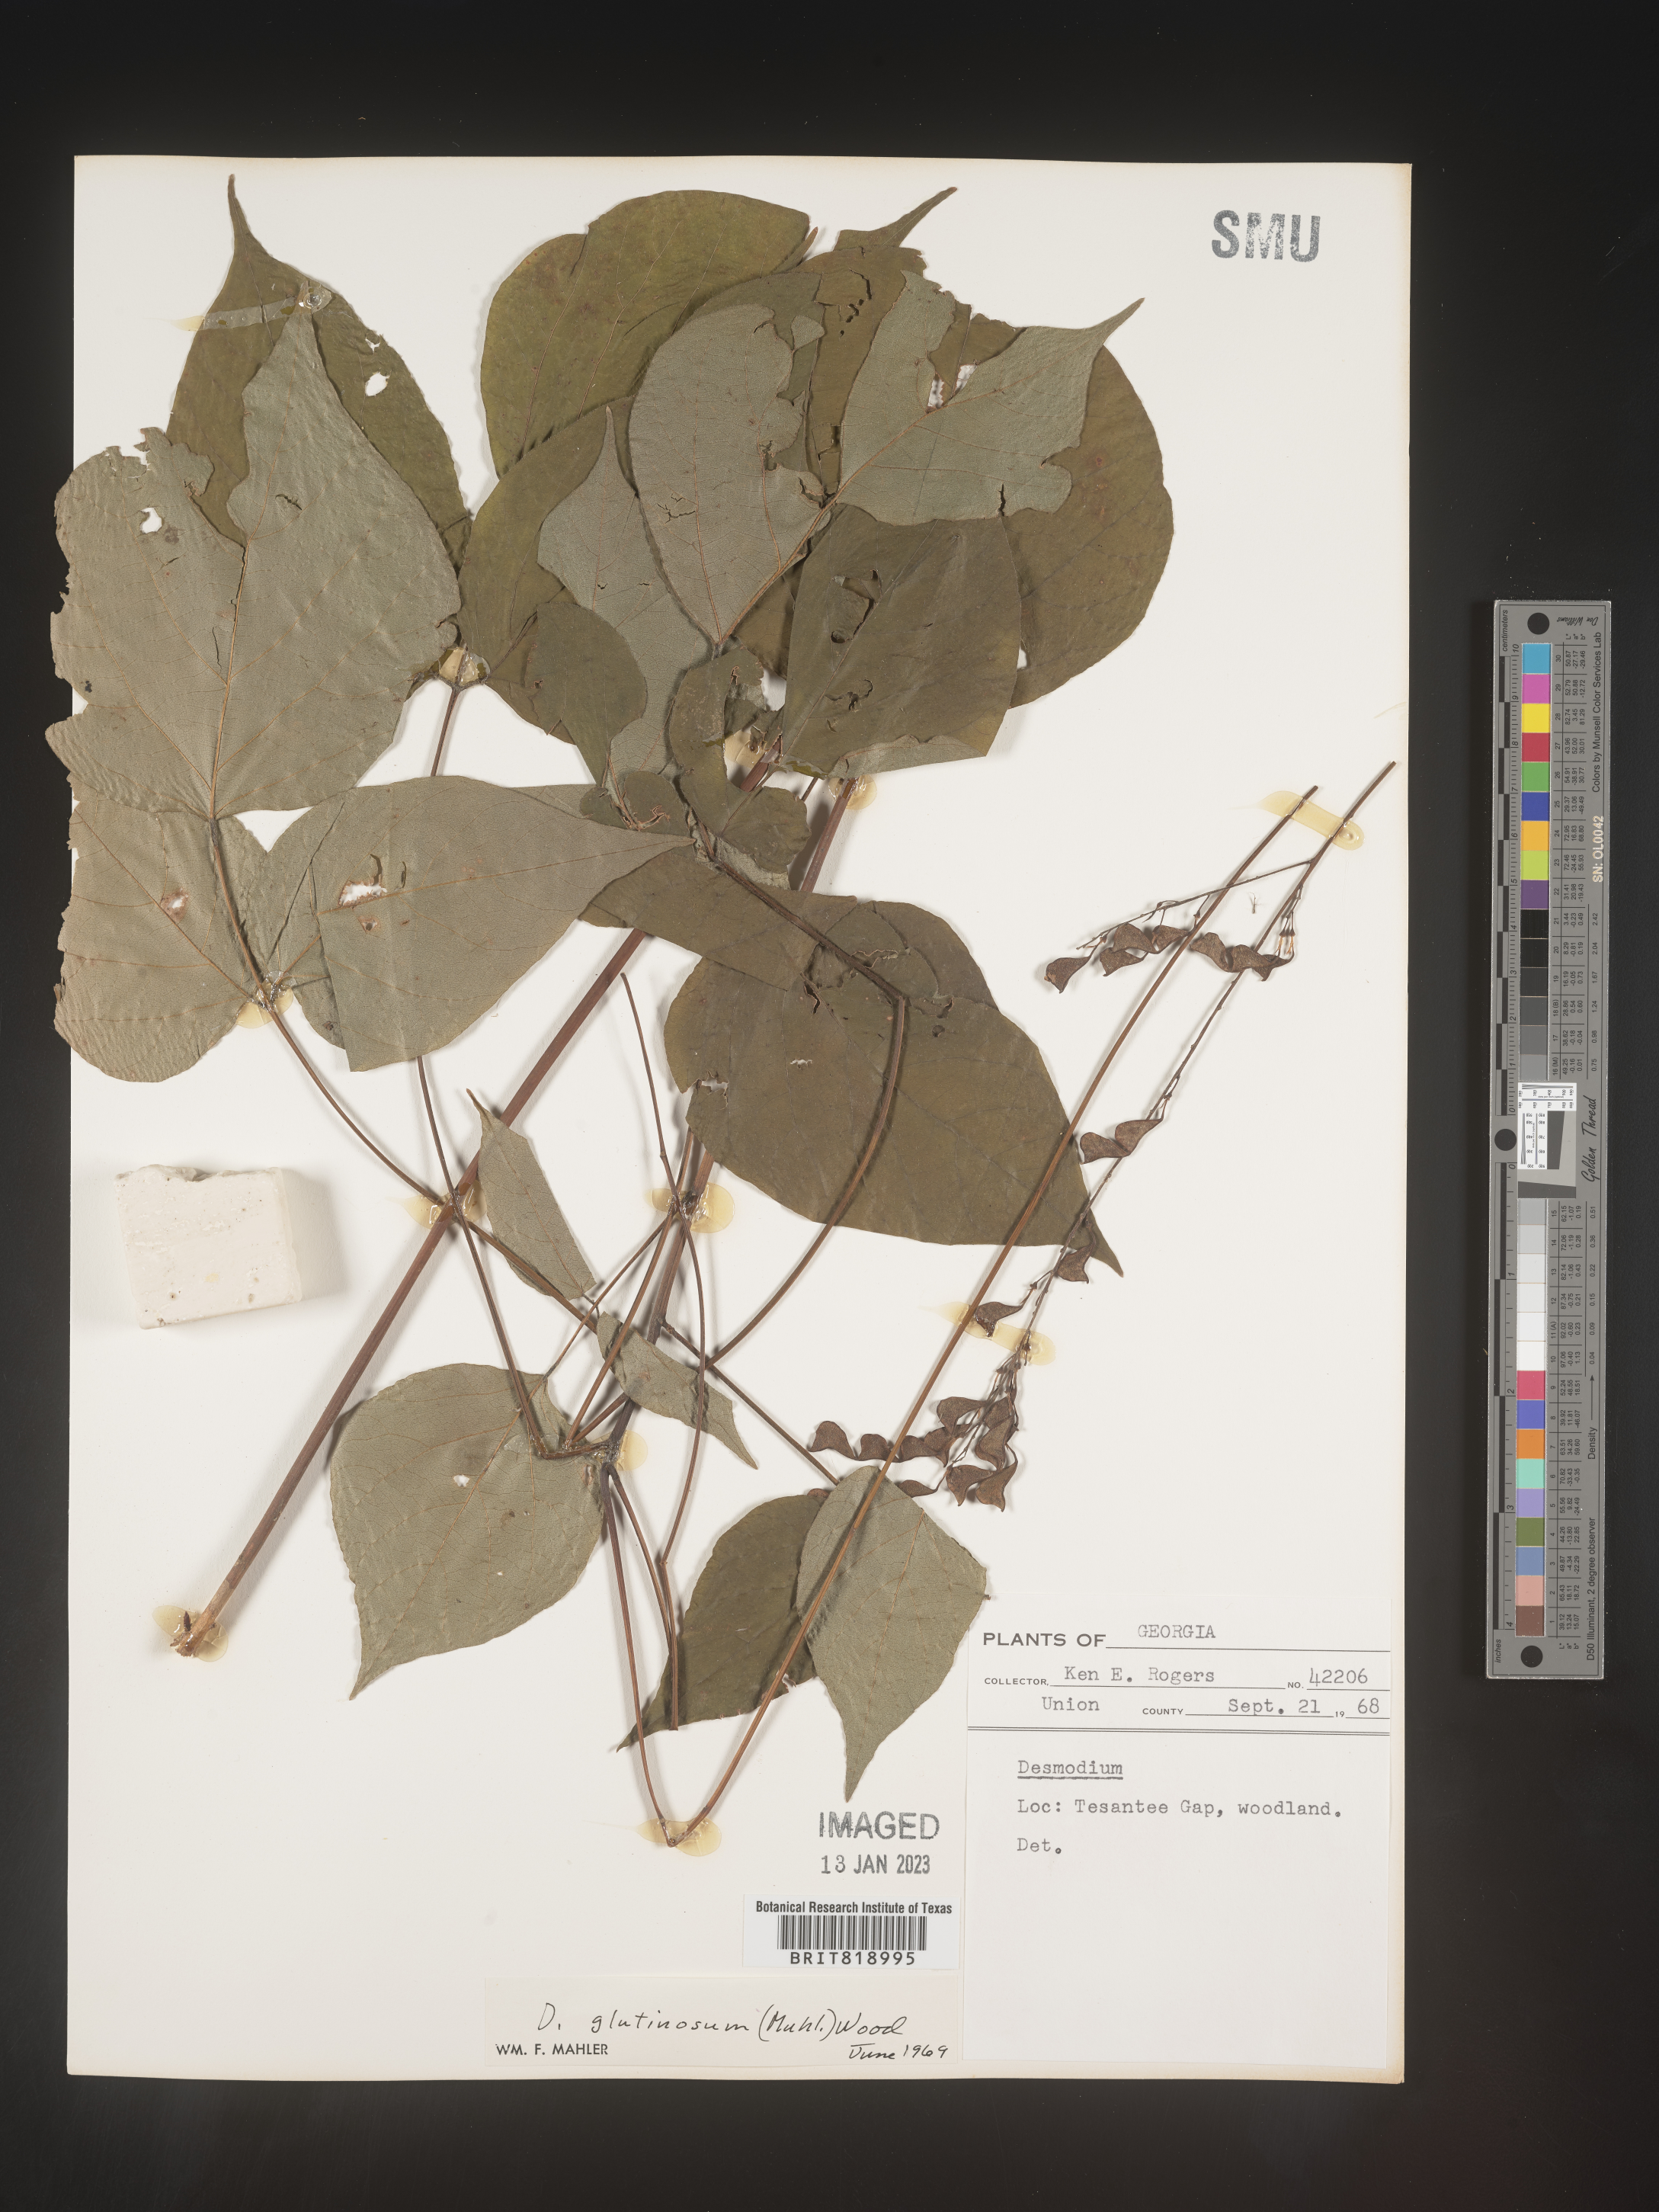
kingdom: Plantae
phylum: Tracheophyta
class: Magnoliopsida
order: Fabales
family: Fabaceae
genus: Hylodesmum
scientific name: Hylodesmum glutinosum
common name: Clustered-leaved tick-trefoil
